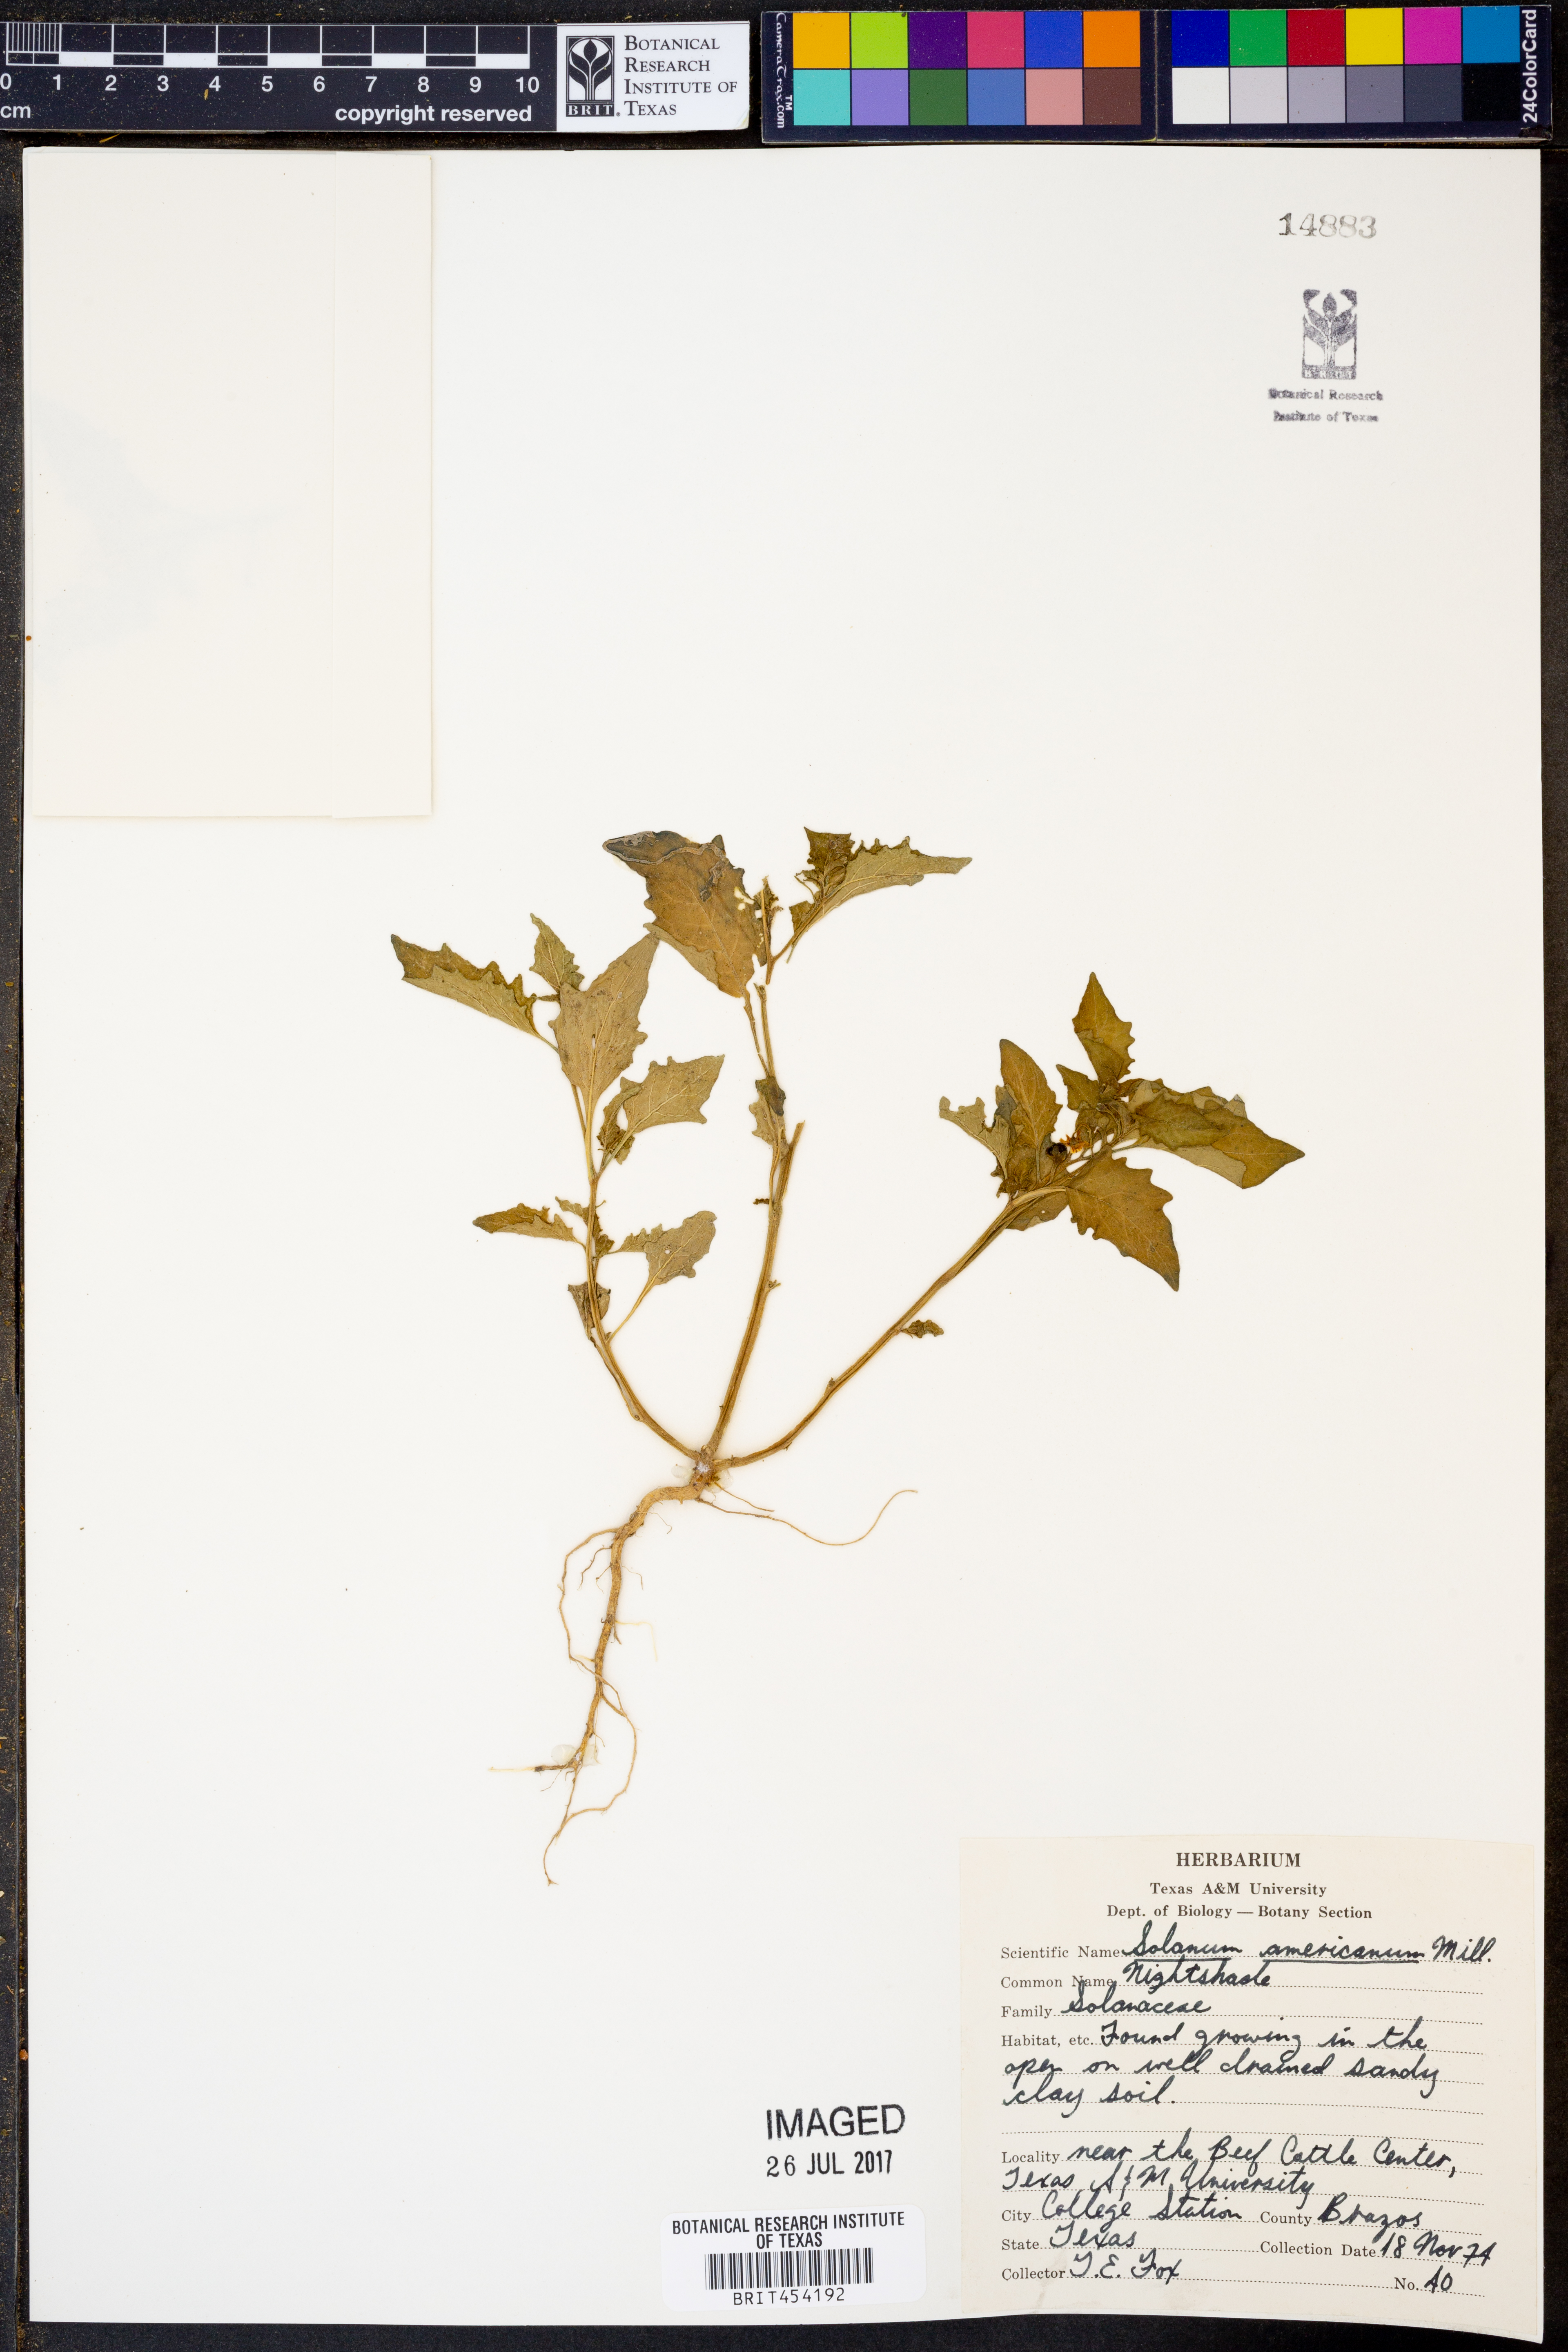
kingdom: Plantae
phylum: Tracheophyta
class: Magnoliopsida
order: Solanales
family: Solanaceae
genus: Solanum
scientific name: Solanum americanum
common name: American black nightshade
